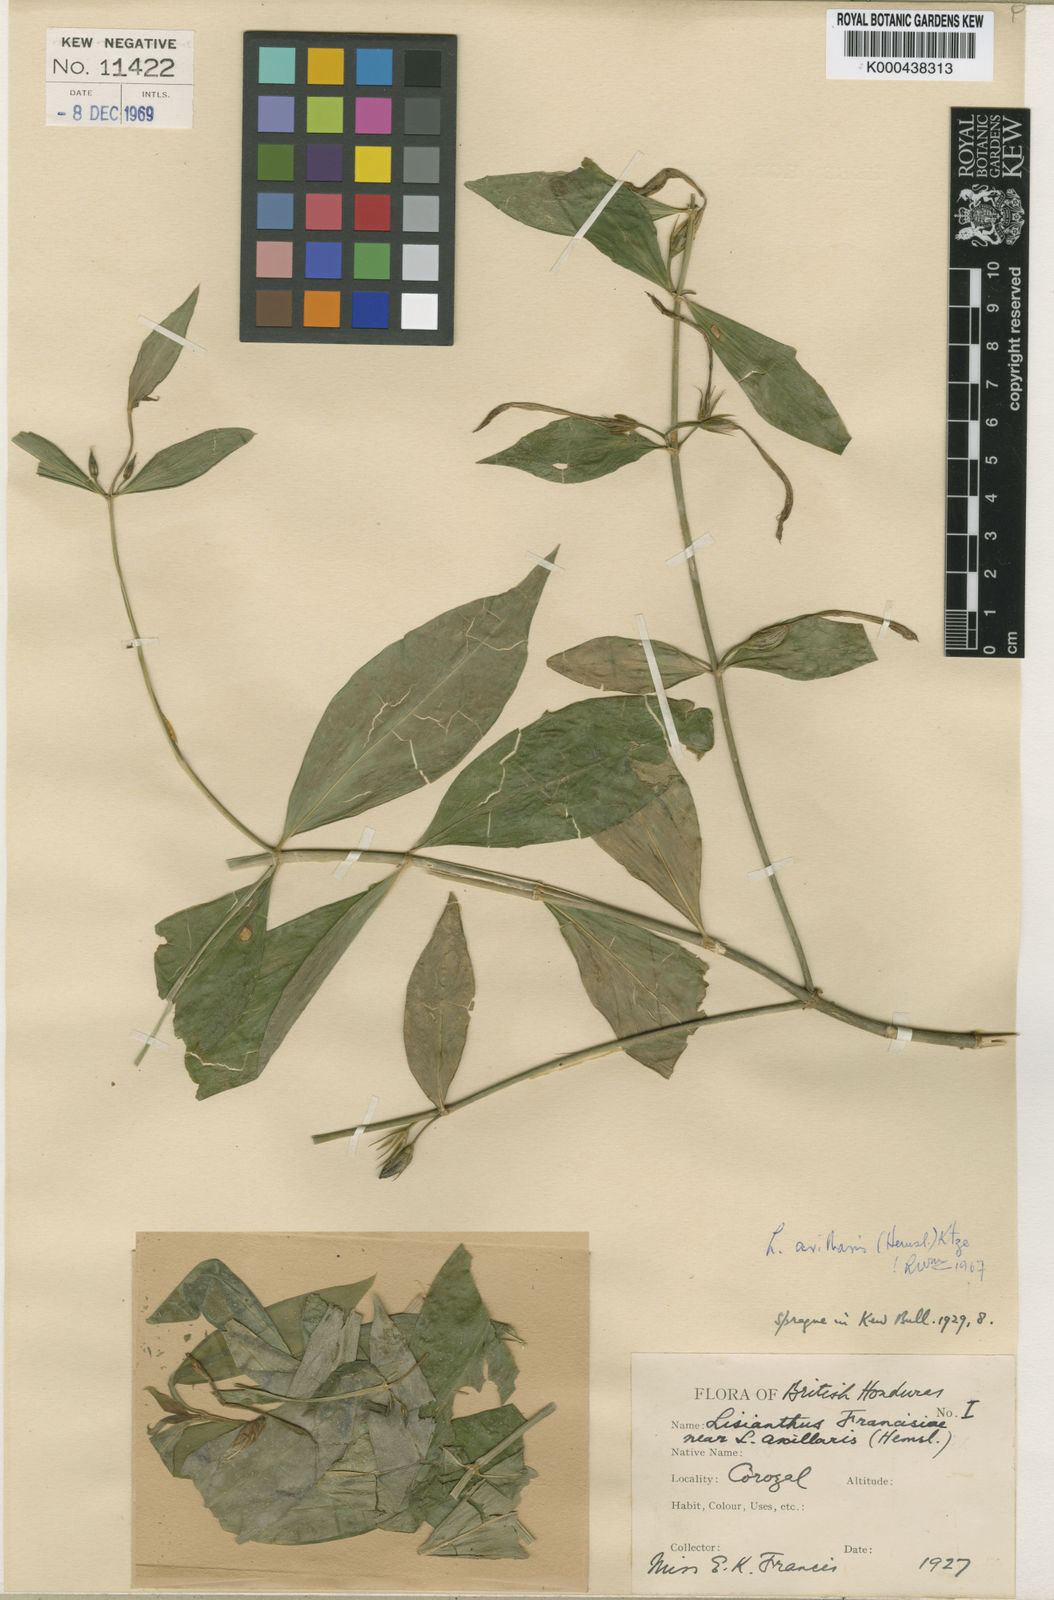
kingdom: Plantae
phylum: Tracheophyta
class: Magnoliopsida
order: Gentianales
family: Gentianaceae
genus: Lisianthus
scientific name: Lisianthus axillaris
